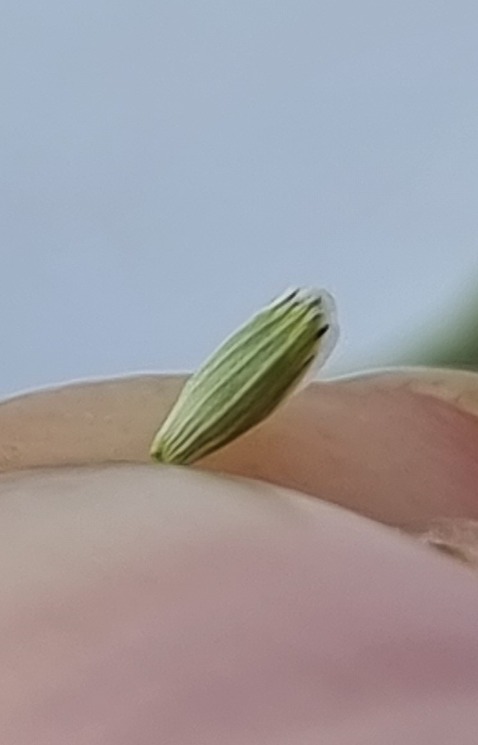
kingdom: Plantae
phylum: Tracheophyta
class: Liliopsida
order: Poales
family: Poaceae
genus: Glyceria
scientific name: Glyceria notata
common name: Butblomstret sødgræs
